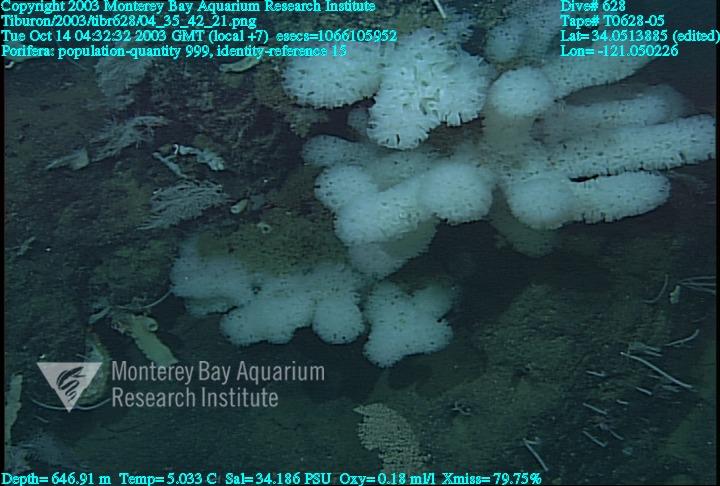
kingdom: Animalia
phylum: Porifera
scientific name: Porifera
